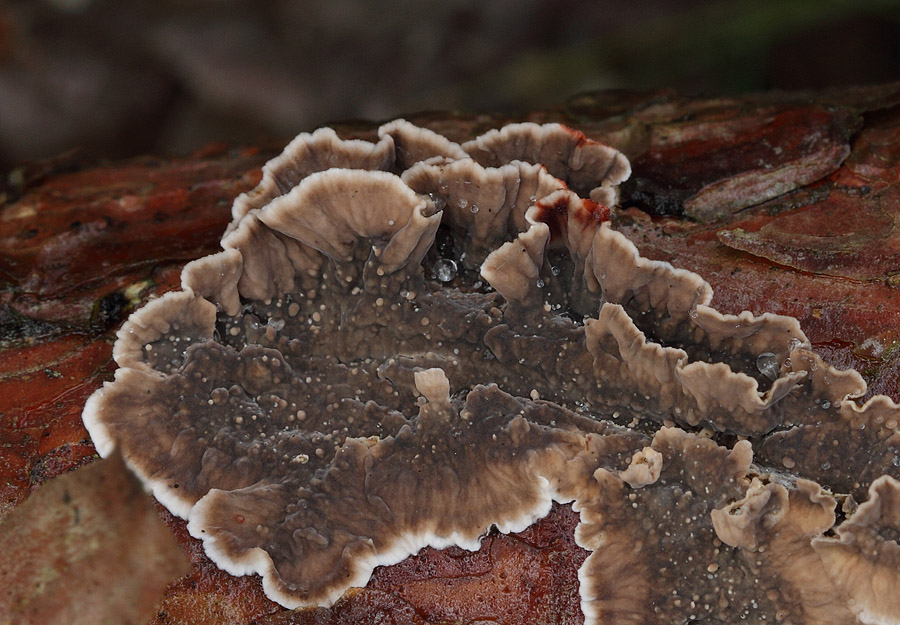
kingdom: Fungi
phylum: Basidiomycota
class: Agaricomycetes
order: Russulales
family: Stereaceae
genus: Stereum
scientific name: Stereum sanguinolentum
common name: blødende lædersvamp
